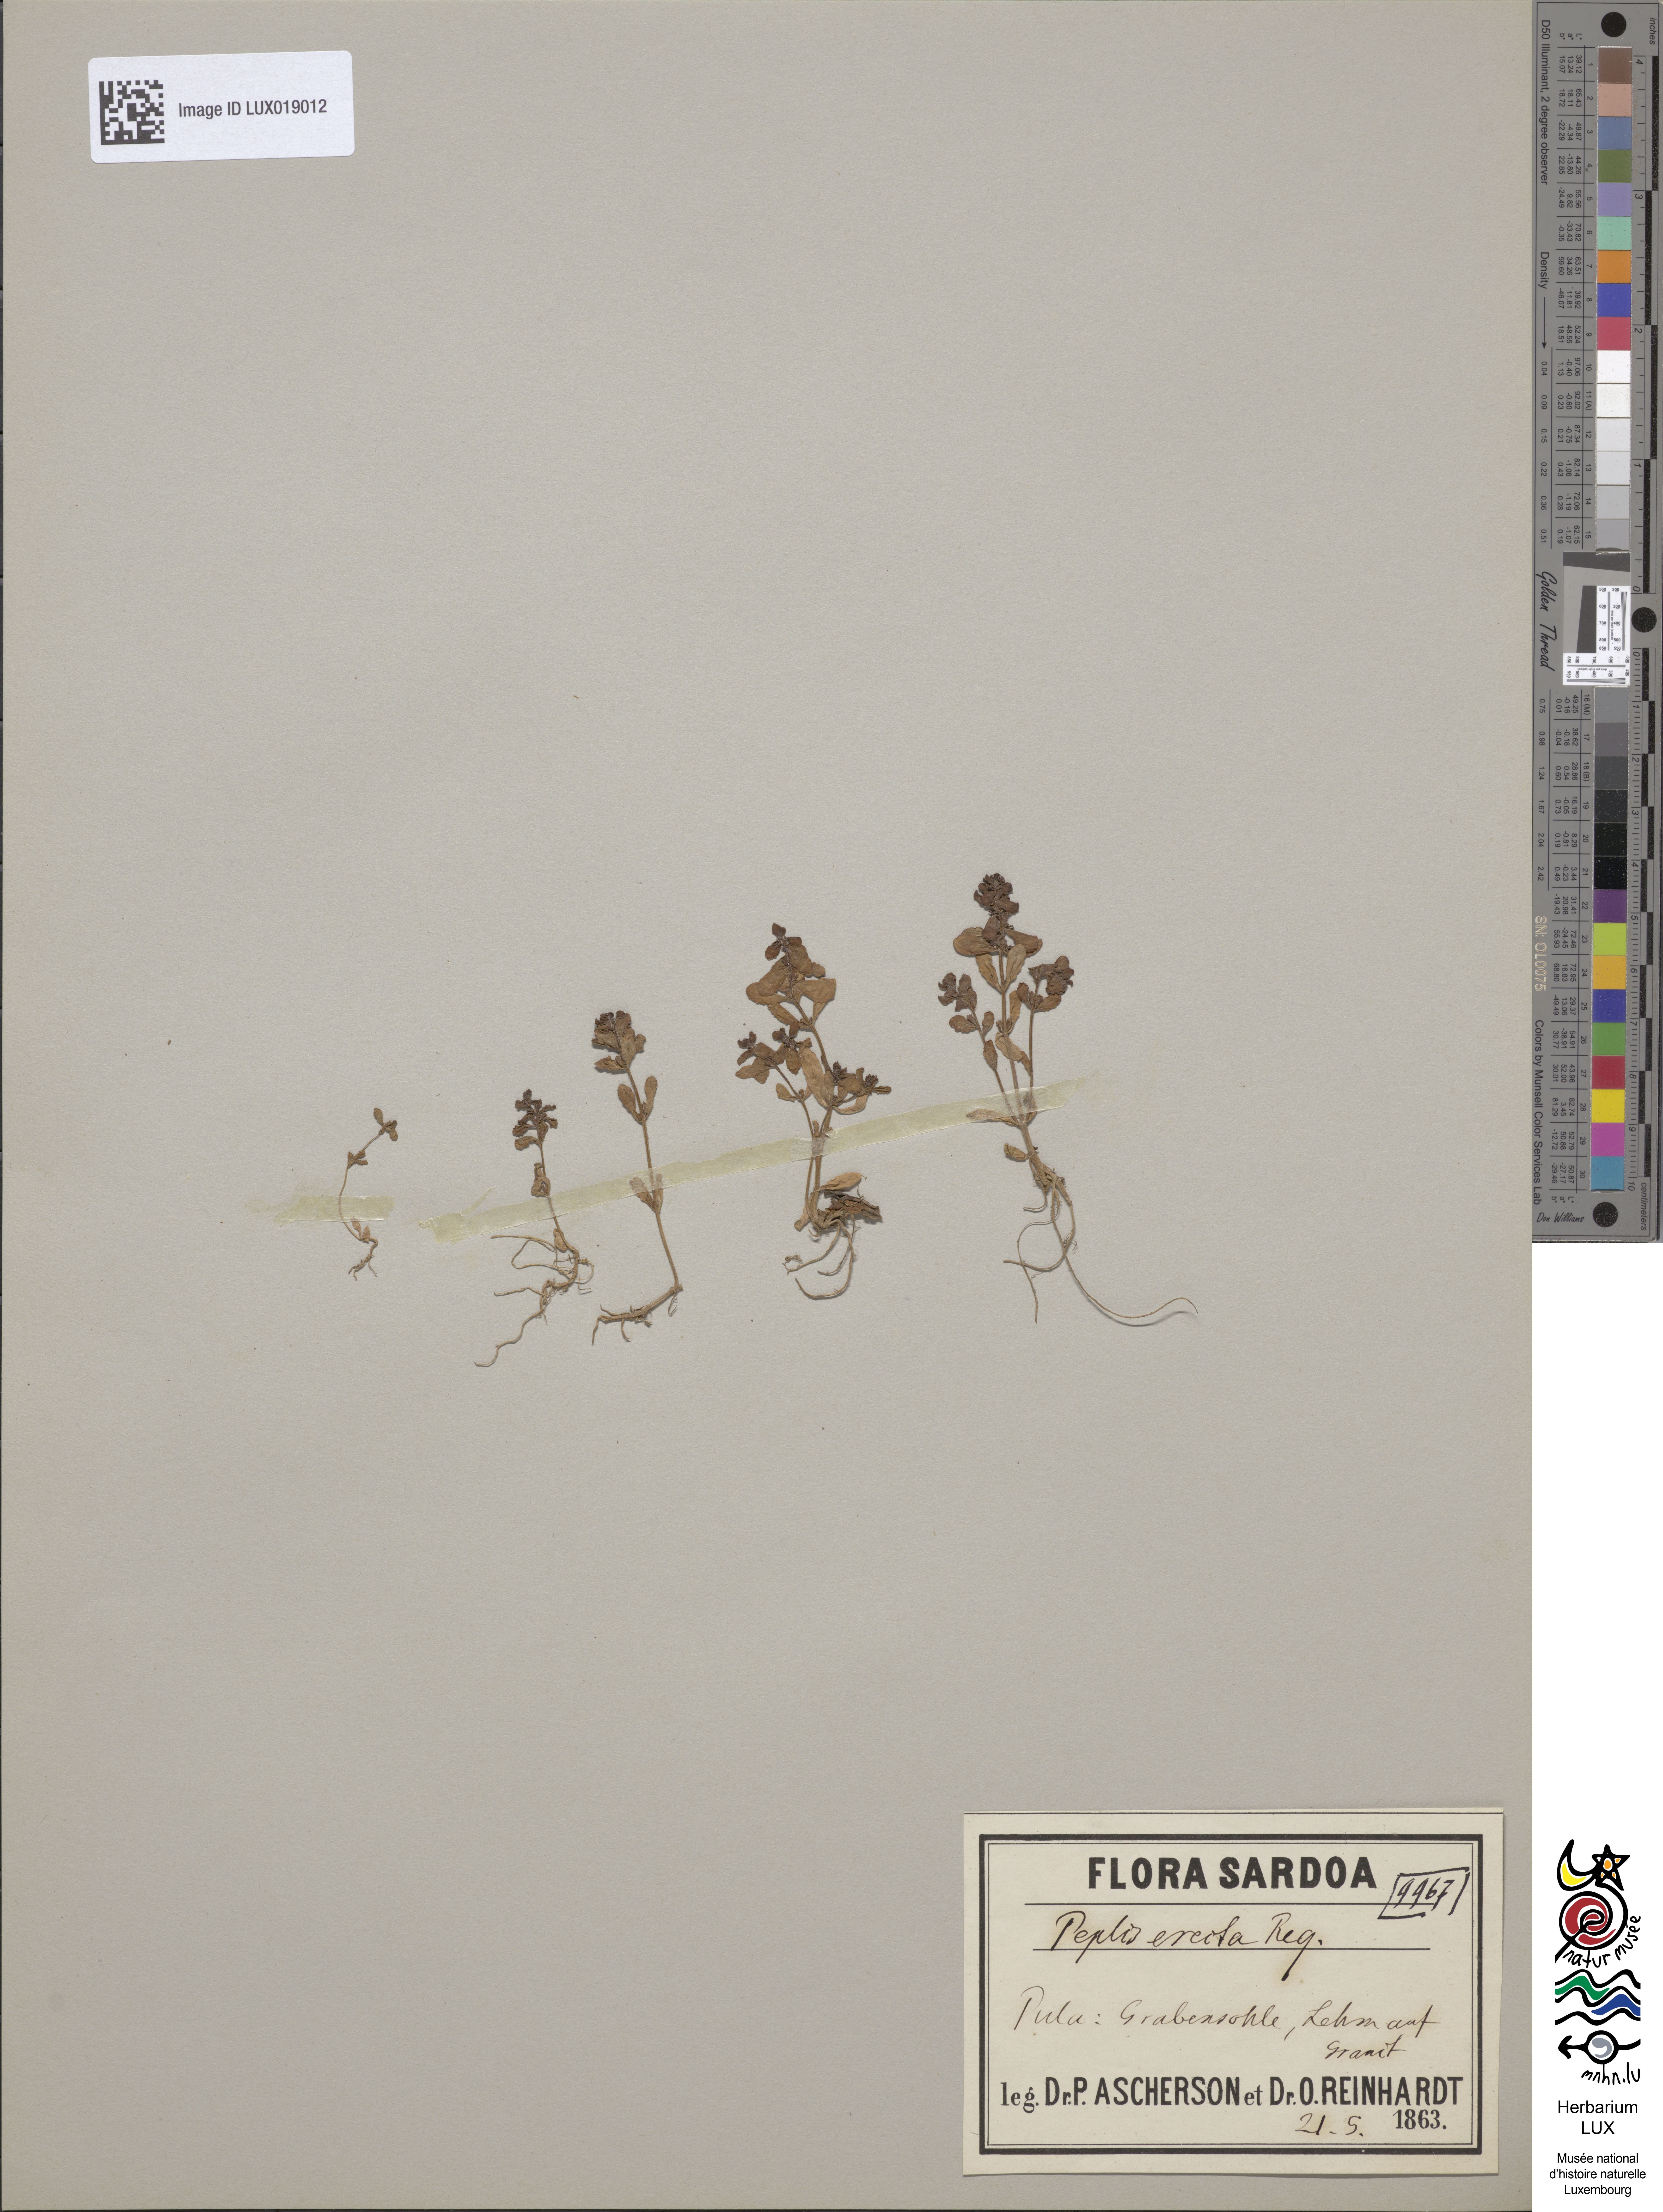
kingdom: Plantae
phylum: Tracheophyta
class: Magnoliopsida
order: Myrtales
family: Lythraceae
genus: Lythrum
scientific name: Lythrum borysthenicum
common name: Loosestrife
